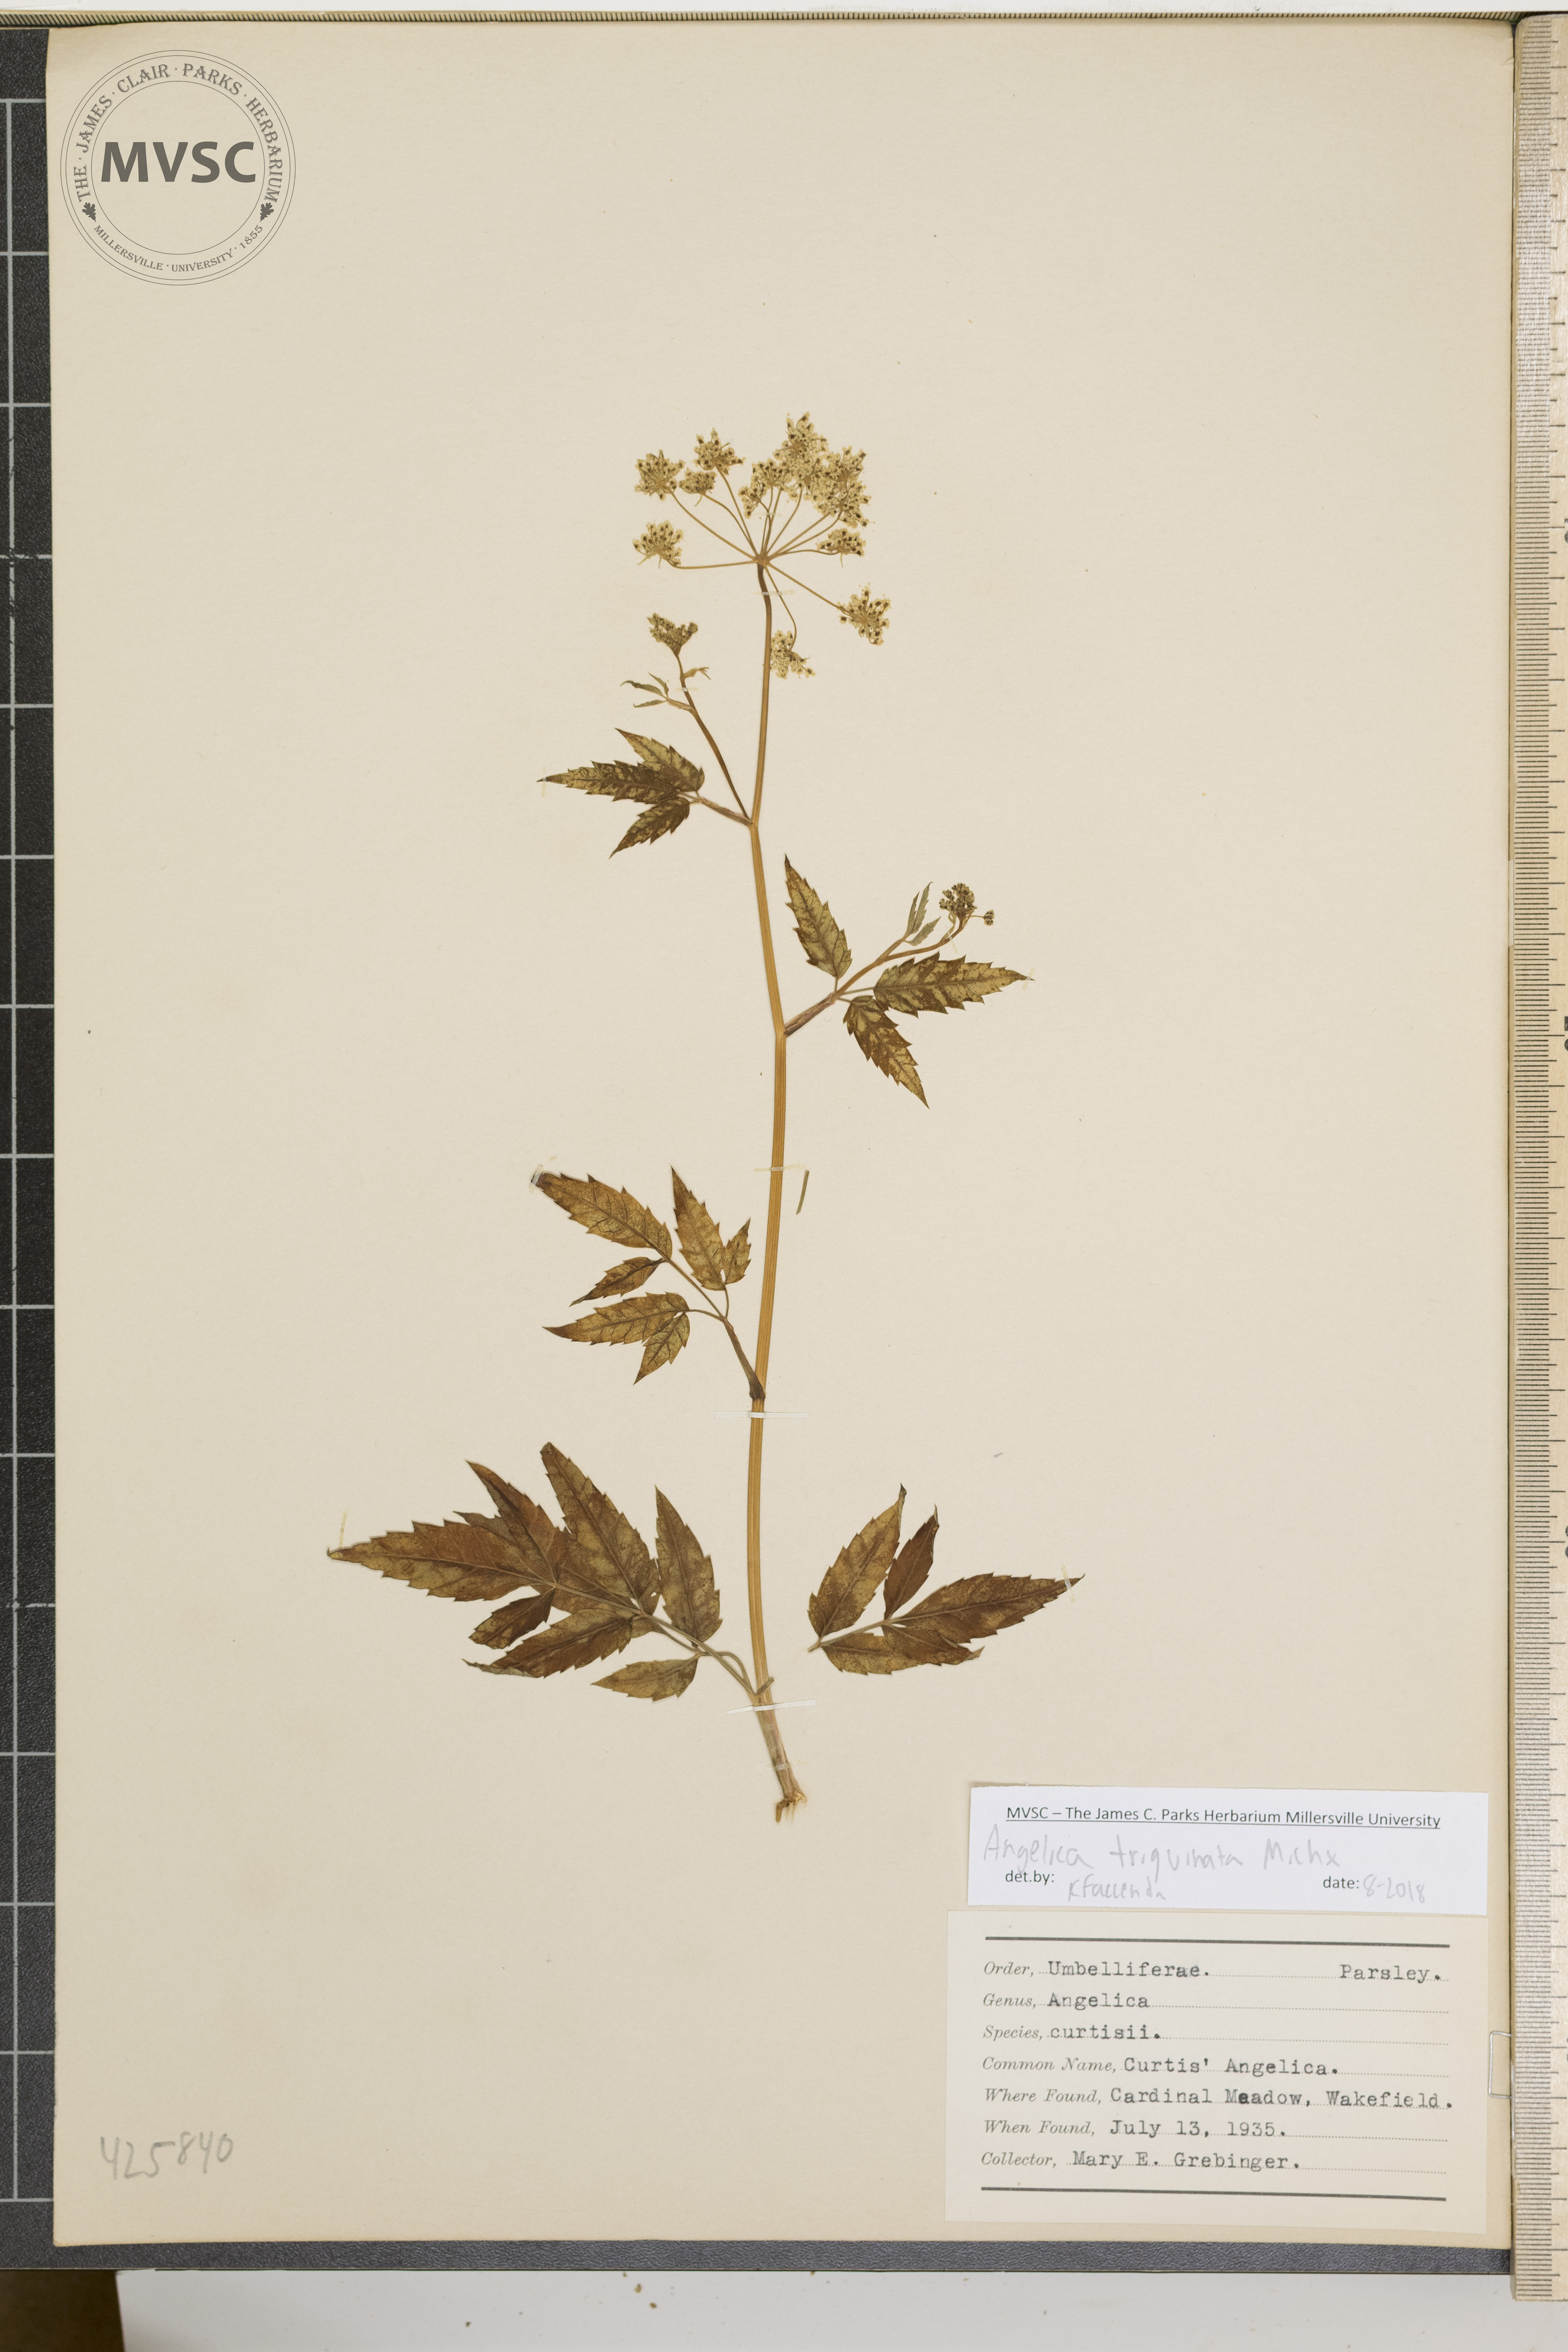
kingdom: Plantae
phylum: Tracheophyta
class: Magnoliopsida
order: Apiales
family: Apiaceae
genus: Angelica
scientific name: Angelica triquinata
